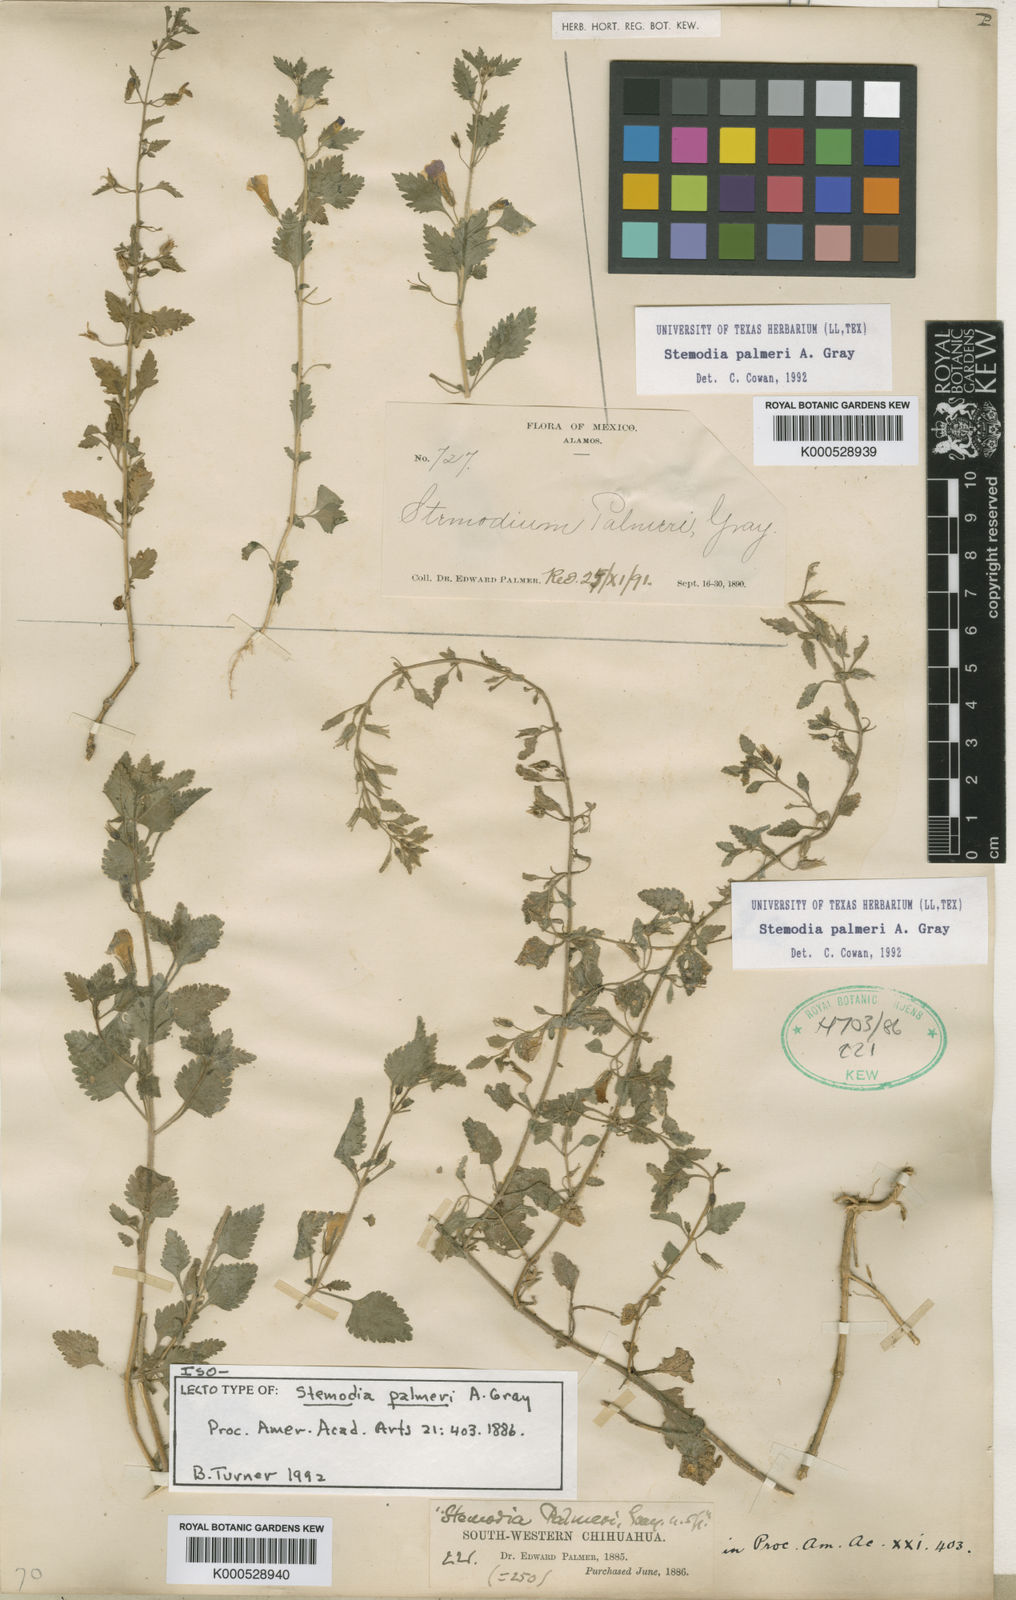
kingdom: Plantae
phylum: Tracheophyta
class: Magnoliopsida
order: Lamiales
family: Plantaginaceae
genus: Stemodia
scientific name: Stemodia palmeri
